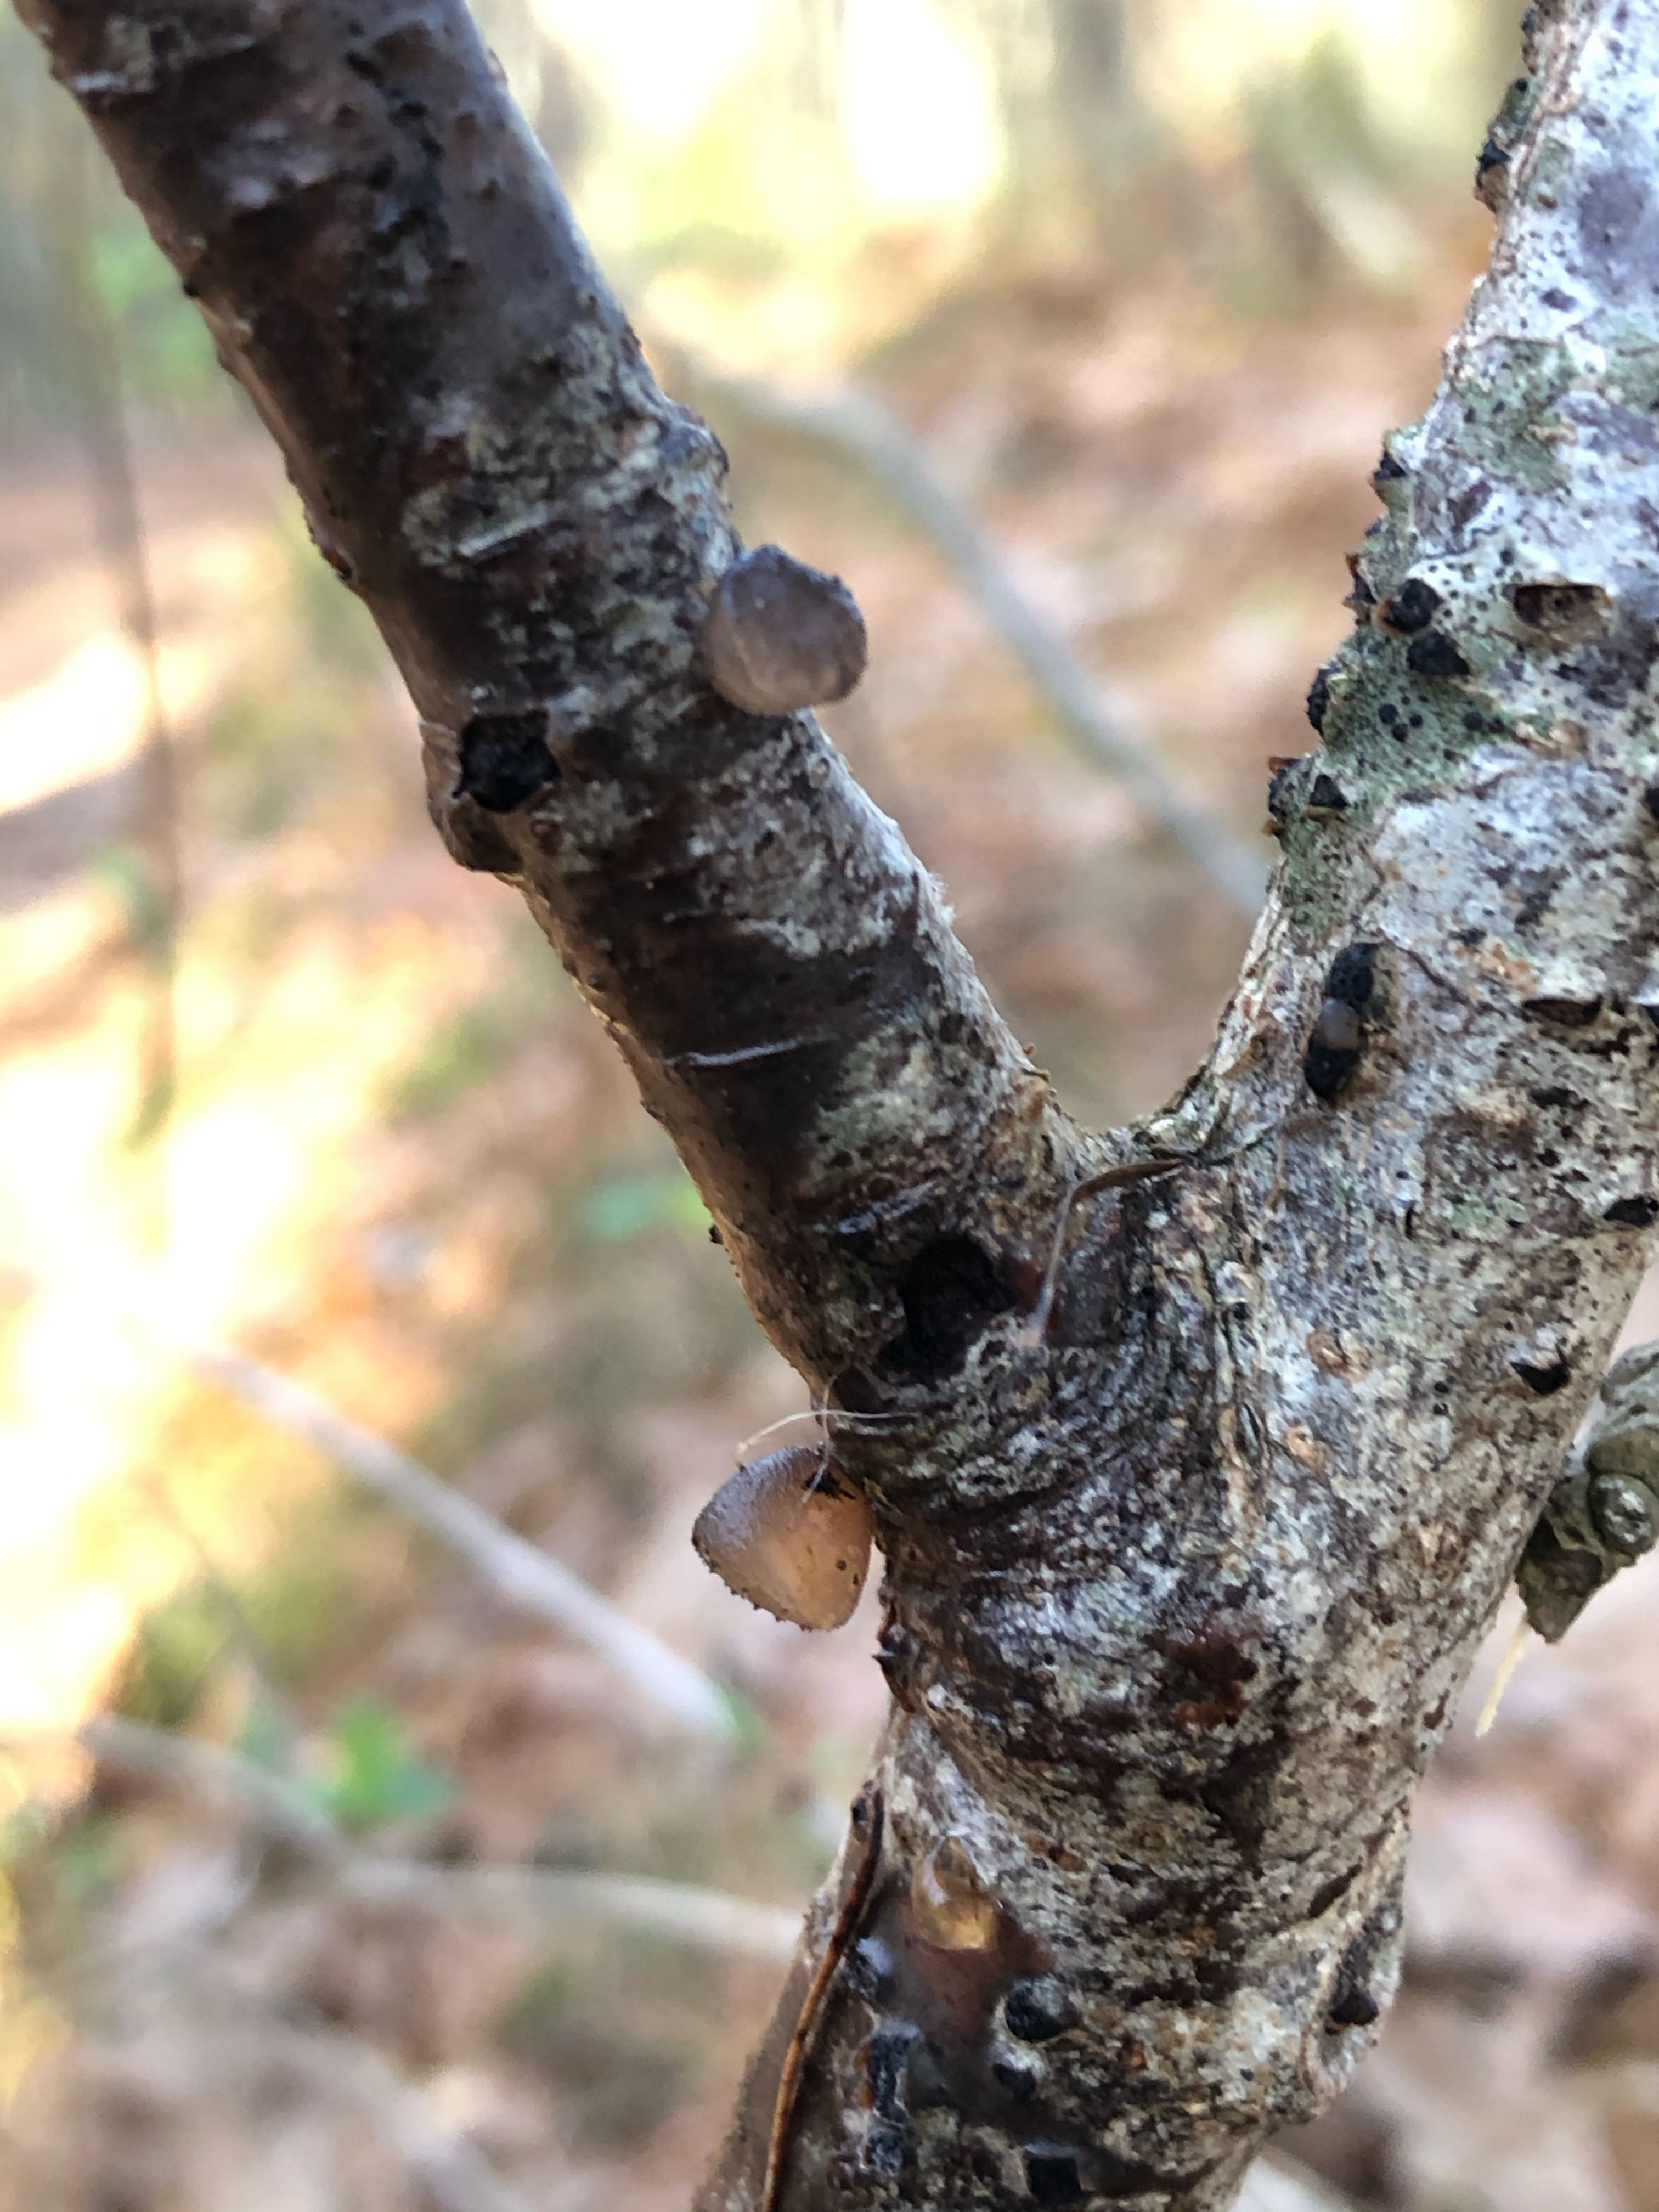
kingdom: Fungi
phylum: Basidiomycota
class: Agaricomycetes
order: Auriculariales
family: Auriculariaceae
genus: Exidia
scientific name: Exidia glandulosa
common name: ege-bævretop
